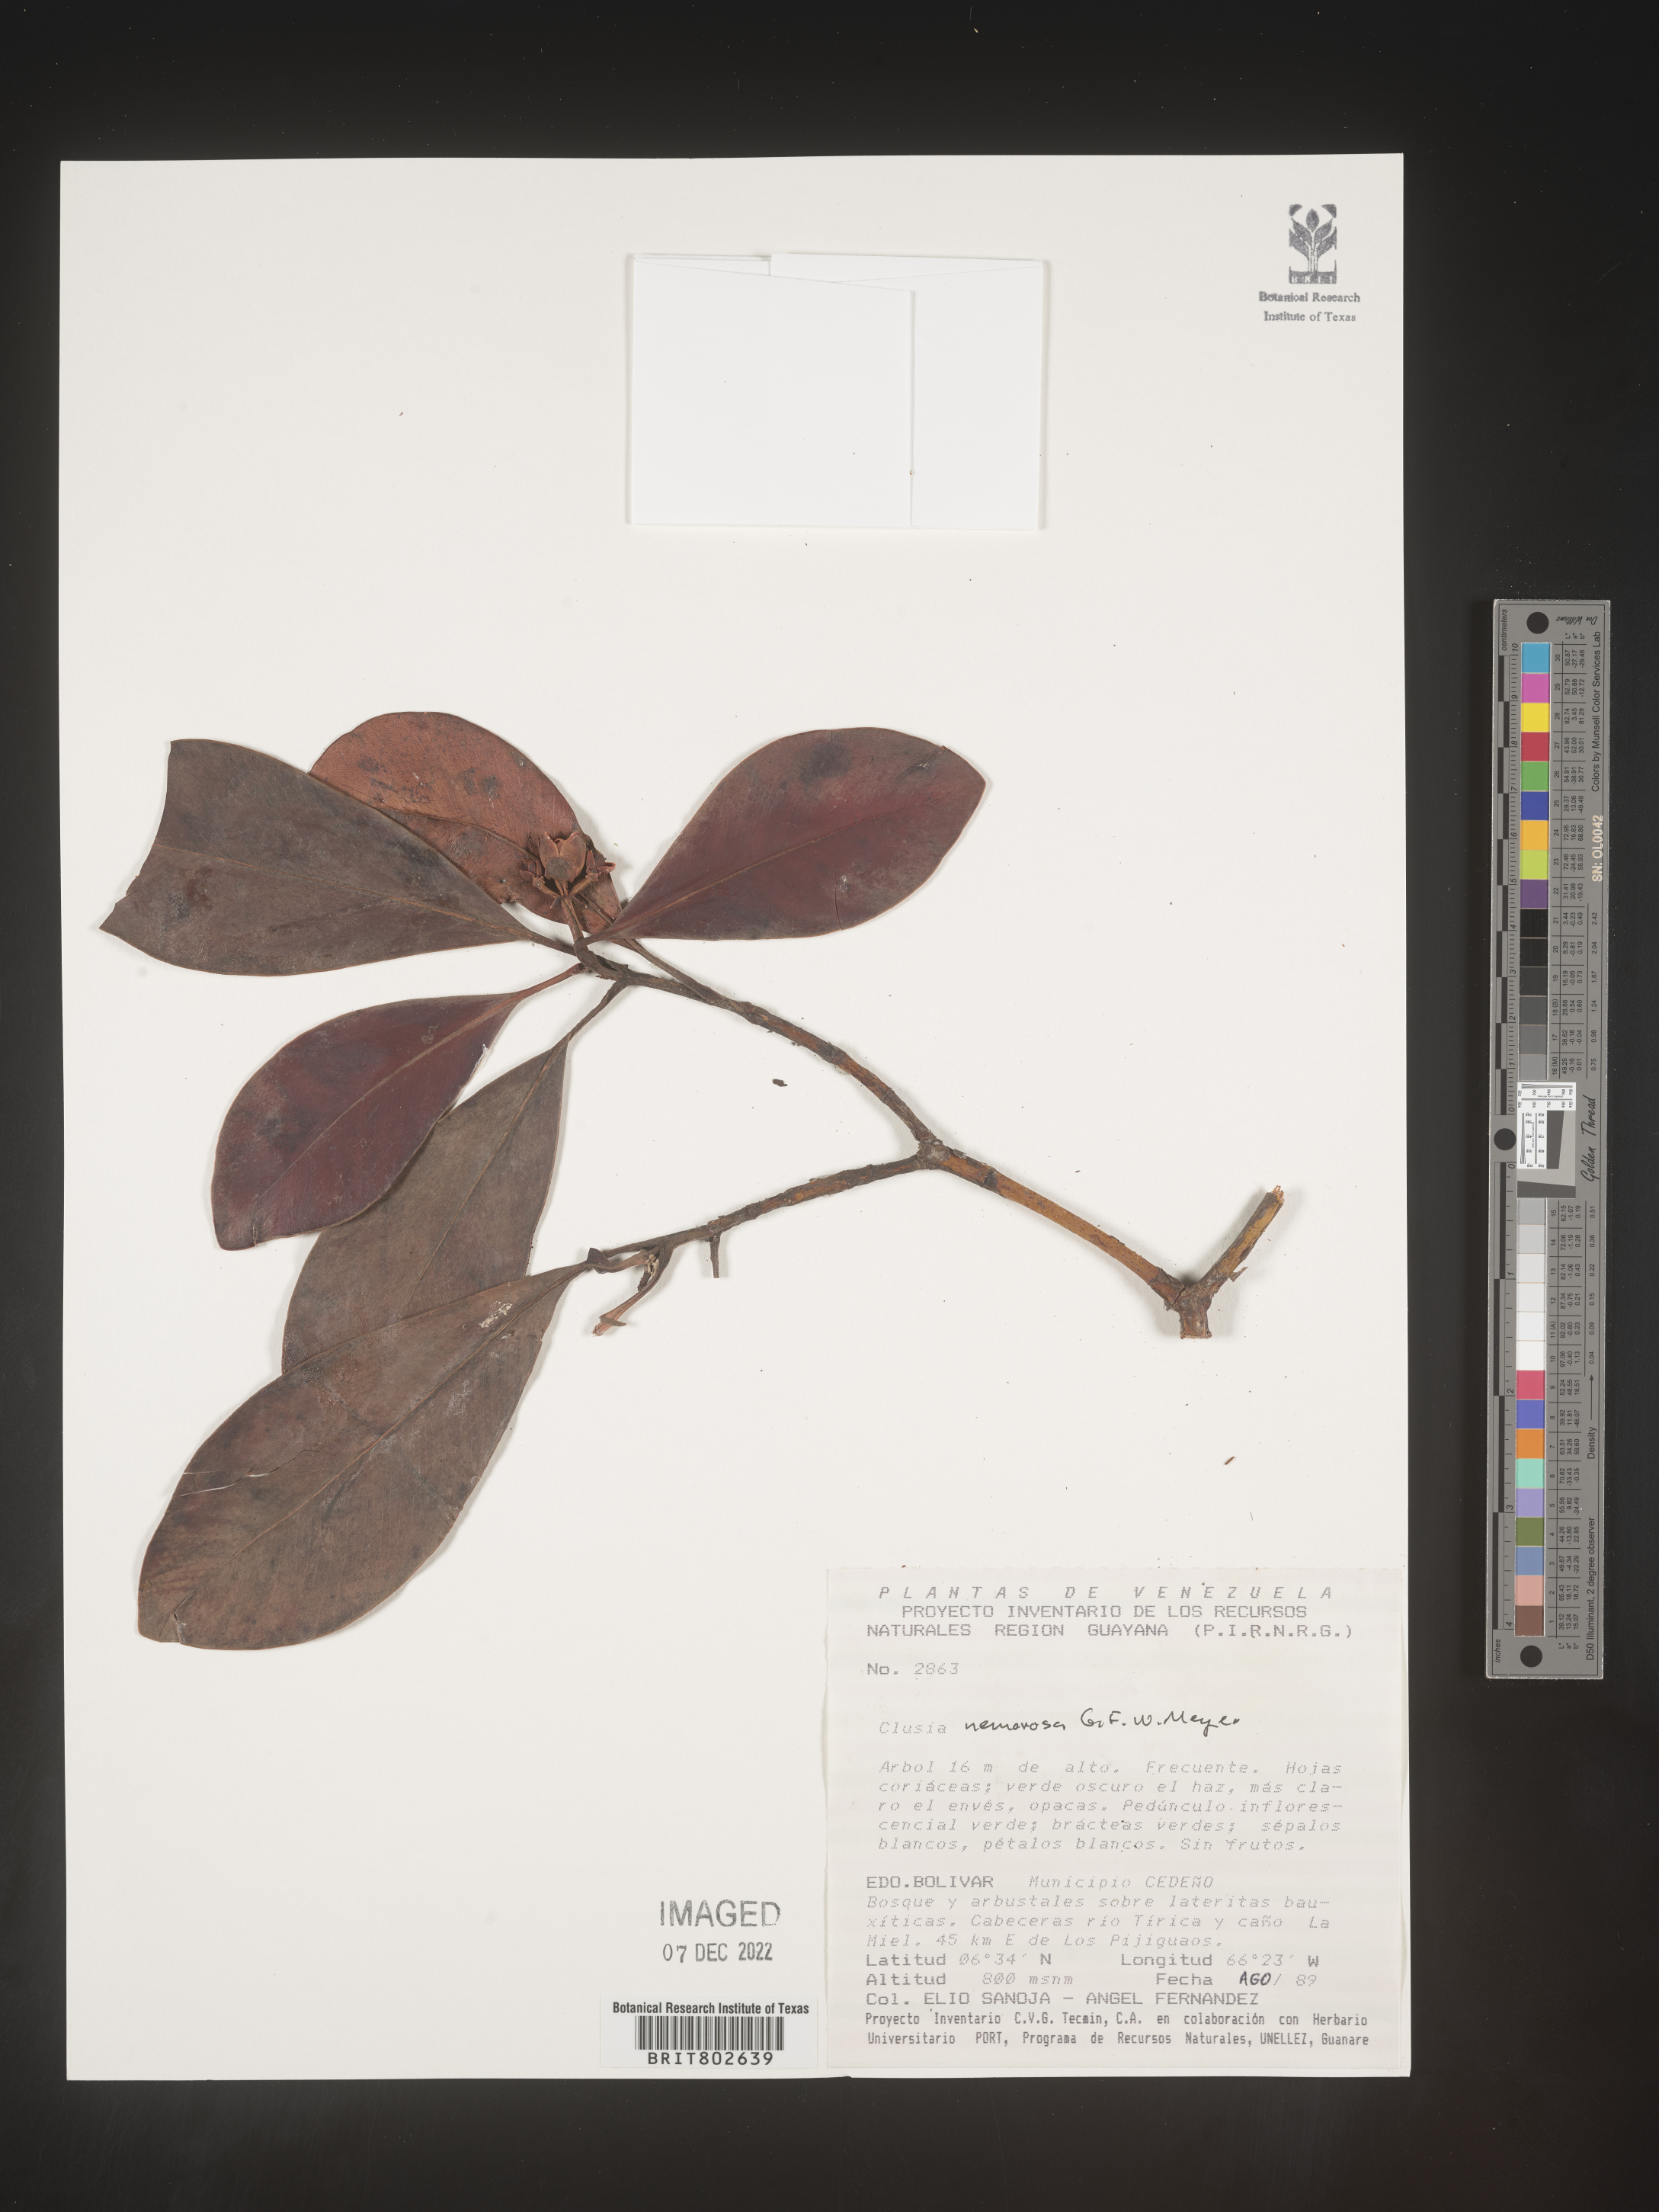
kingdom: Plantae
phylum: Tracheophyta
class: Magnoliopsida
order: Malpighiales
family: Clusiaceae
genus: Clusia
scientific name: Clusia nemorosa
